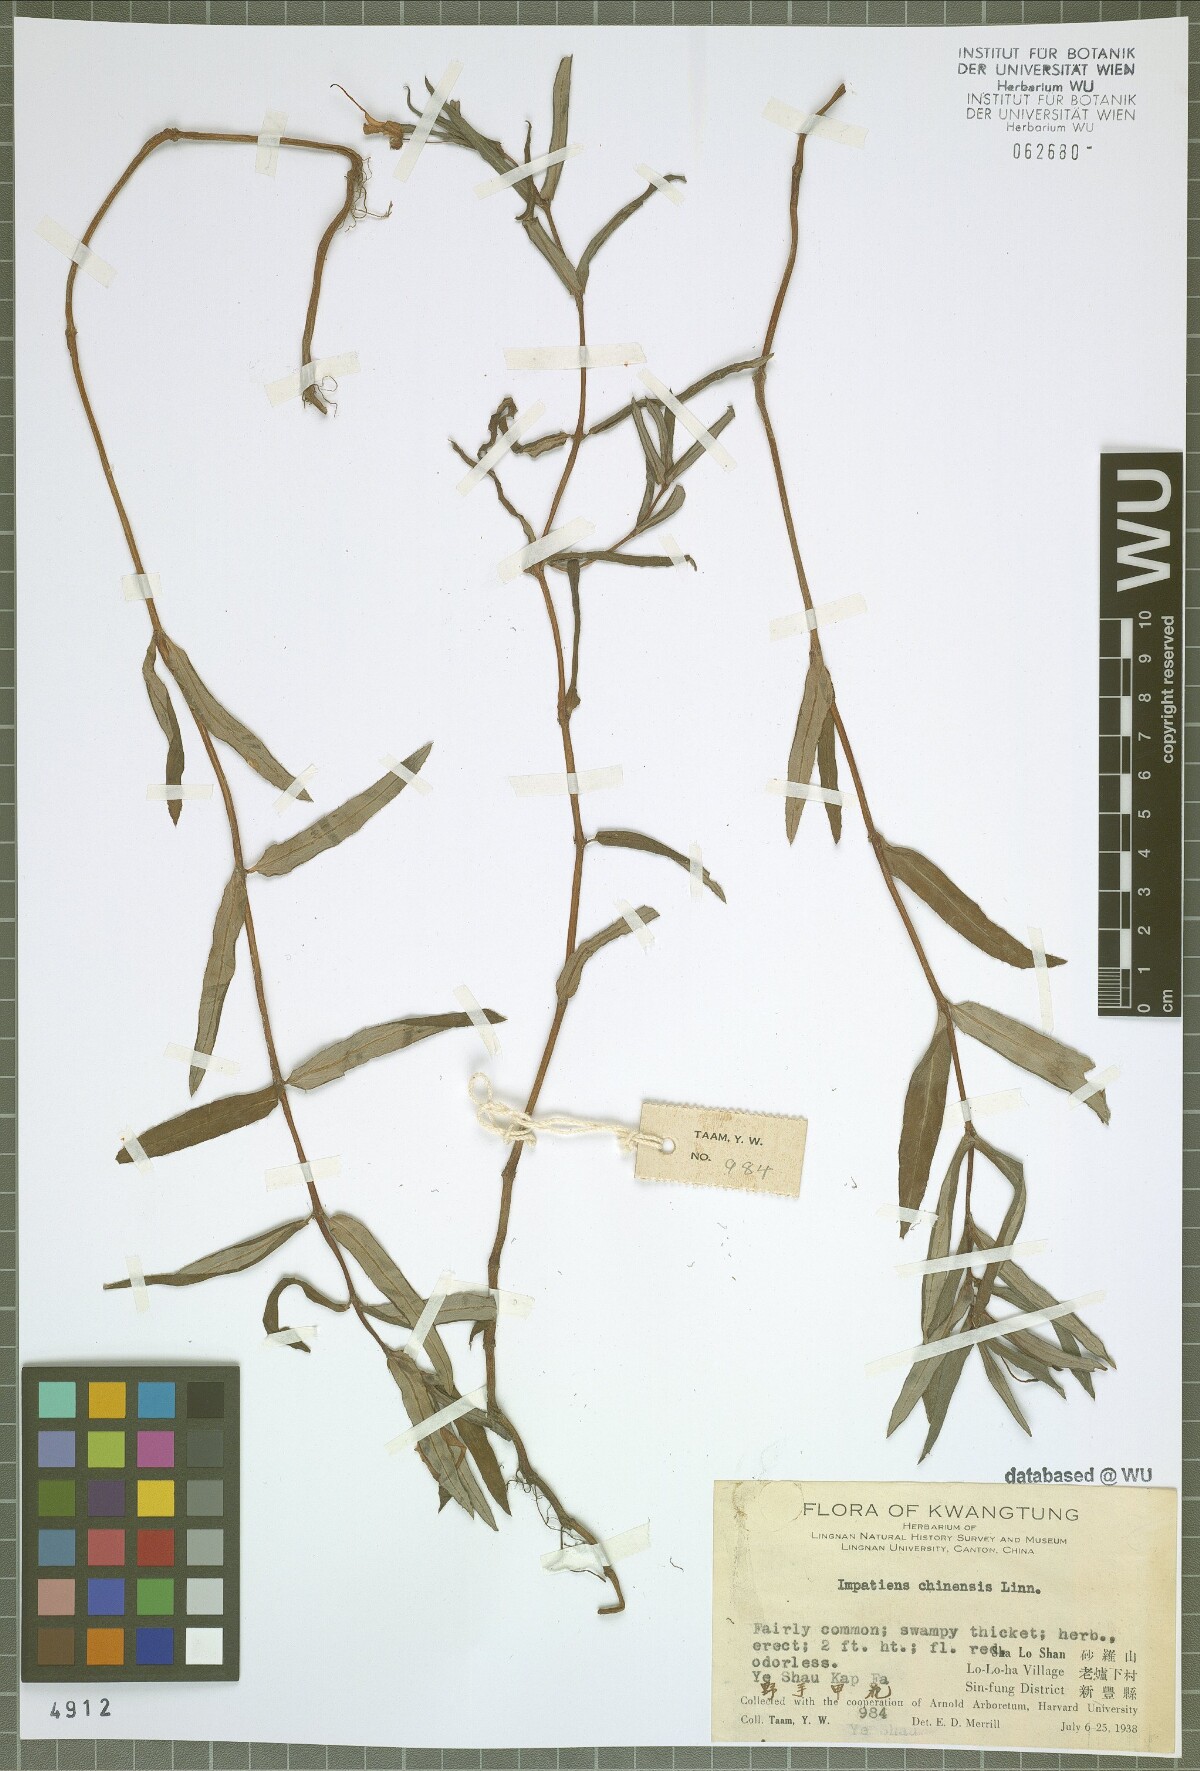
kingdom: Plantae
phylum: Tracheophyta
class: Magnoliopsida
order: Ericales
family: Balsaminaceae
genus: Impatiens
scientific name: Impatiens chinensis
